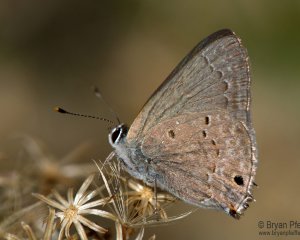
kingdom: Animalia
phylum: Arthropoda
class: Insecta
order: Lepidoptera
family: Lycaenidae
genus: Callicista
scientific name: Callicista columella
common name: Mallow Scrub-Hairstreak
